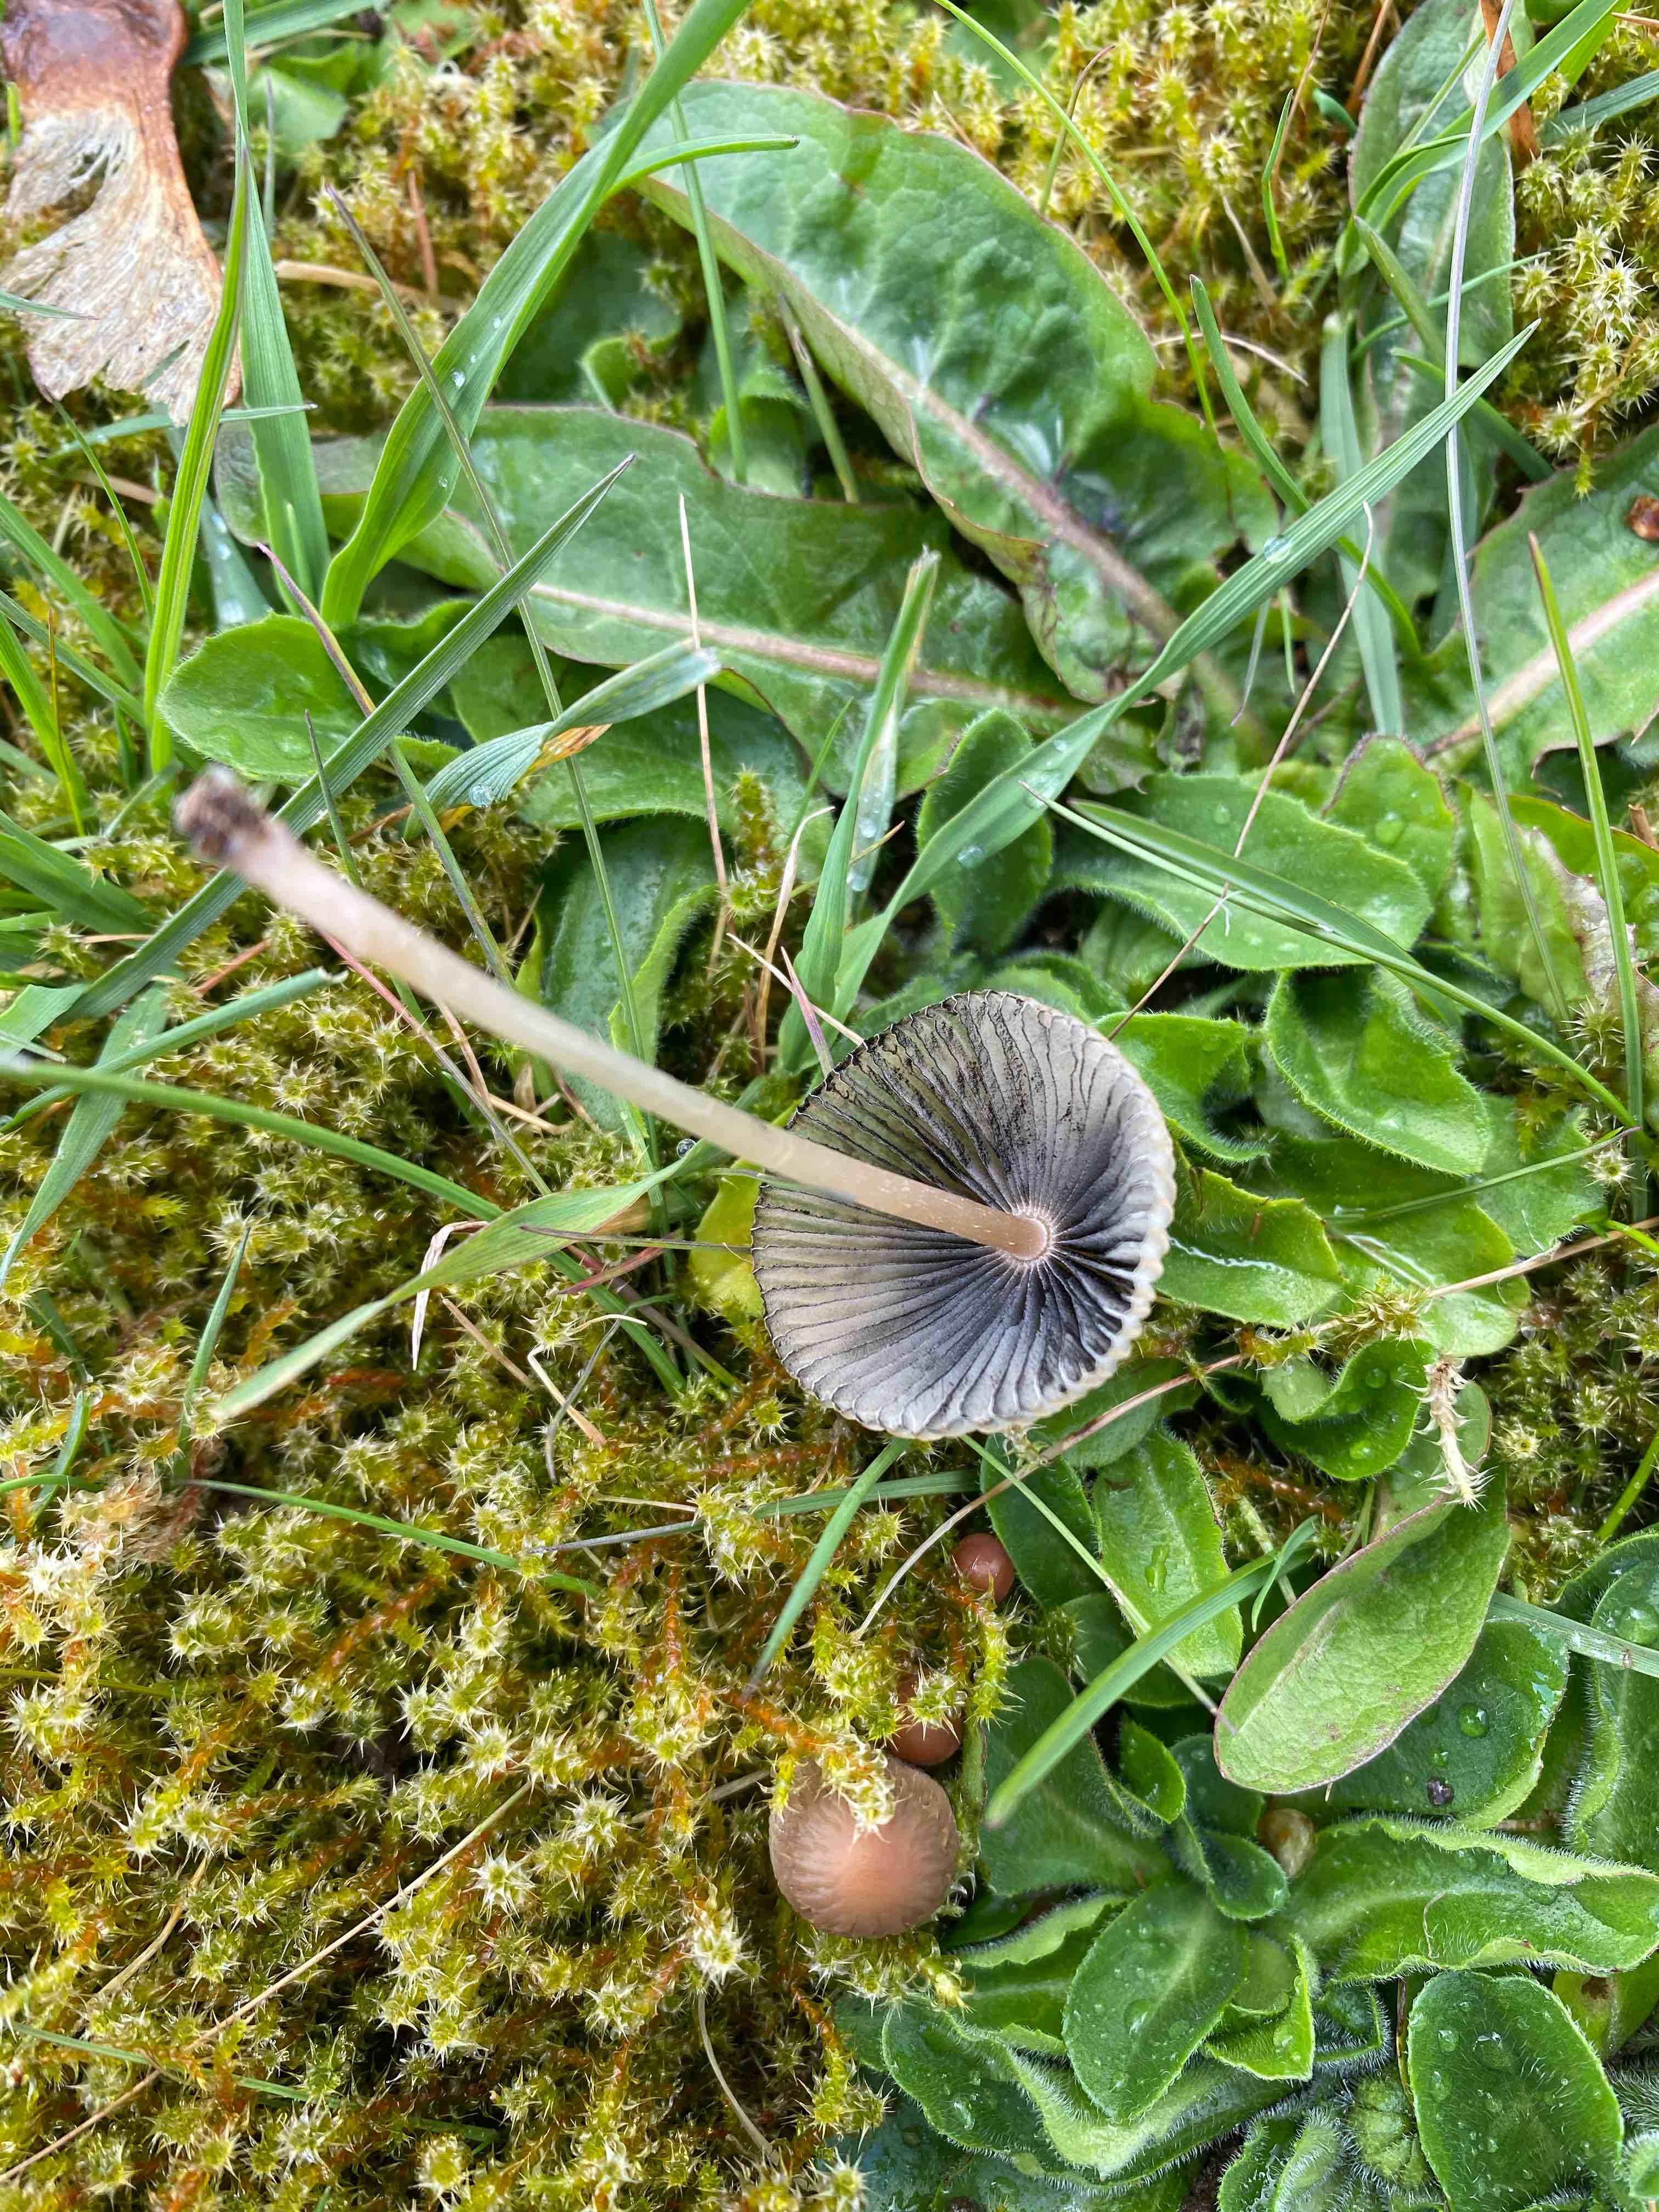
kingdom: Fungi
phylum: Basidiomycota
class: Agaricomycetes
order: Agaricales
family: Psathyrellaceae
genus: Parasola
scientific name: Parasola
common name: hjulhat
